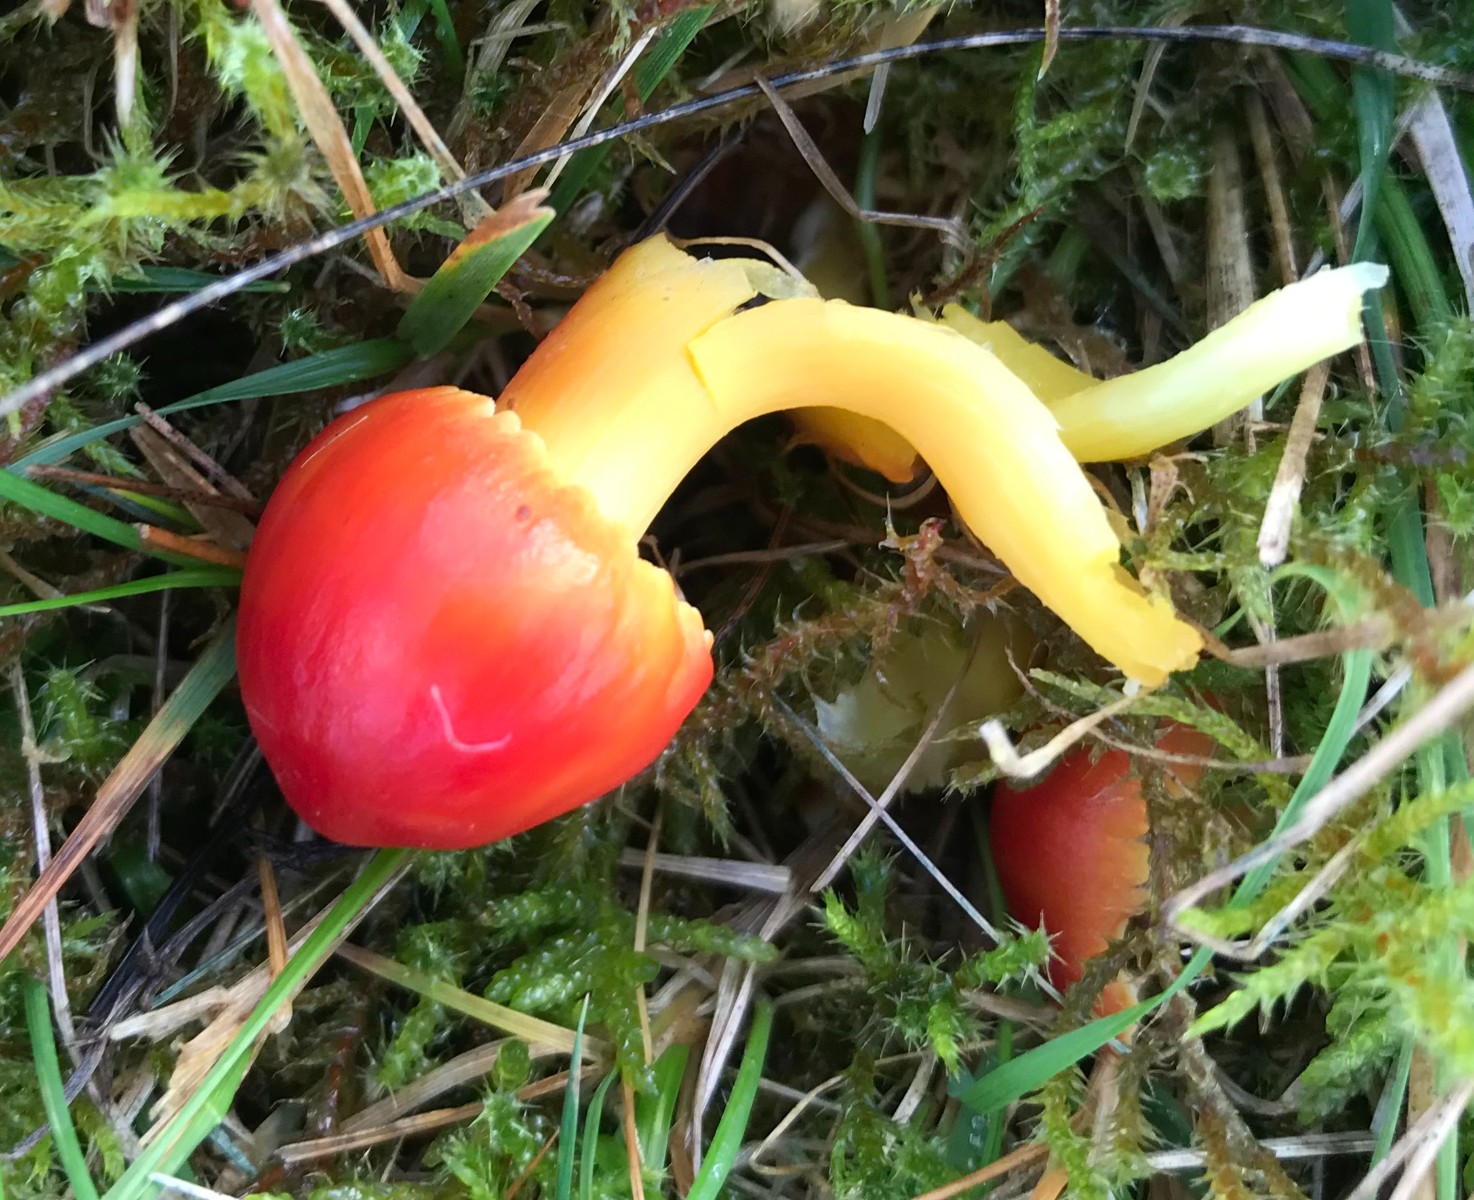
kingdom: Fungi
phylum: Basidiomycota
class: Agaricomycetes
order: Agaricales
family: Hygrophoraceae
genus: Hygrocybe
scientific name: Hygrocybe splendidissima
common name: knaldrød vokshat
